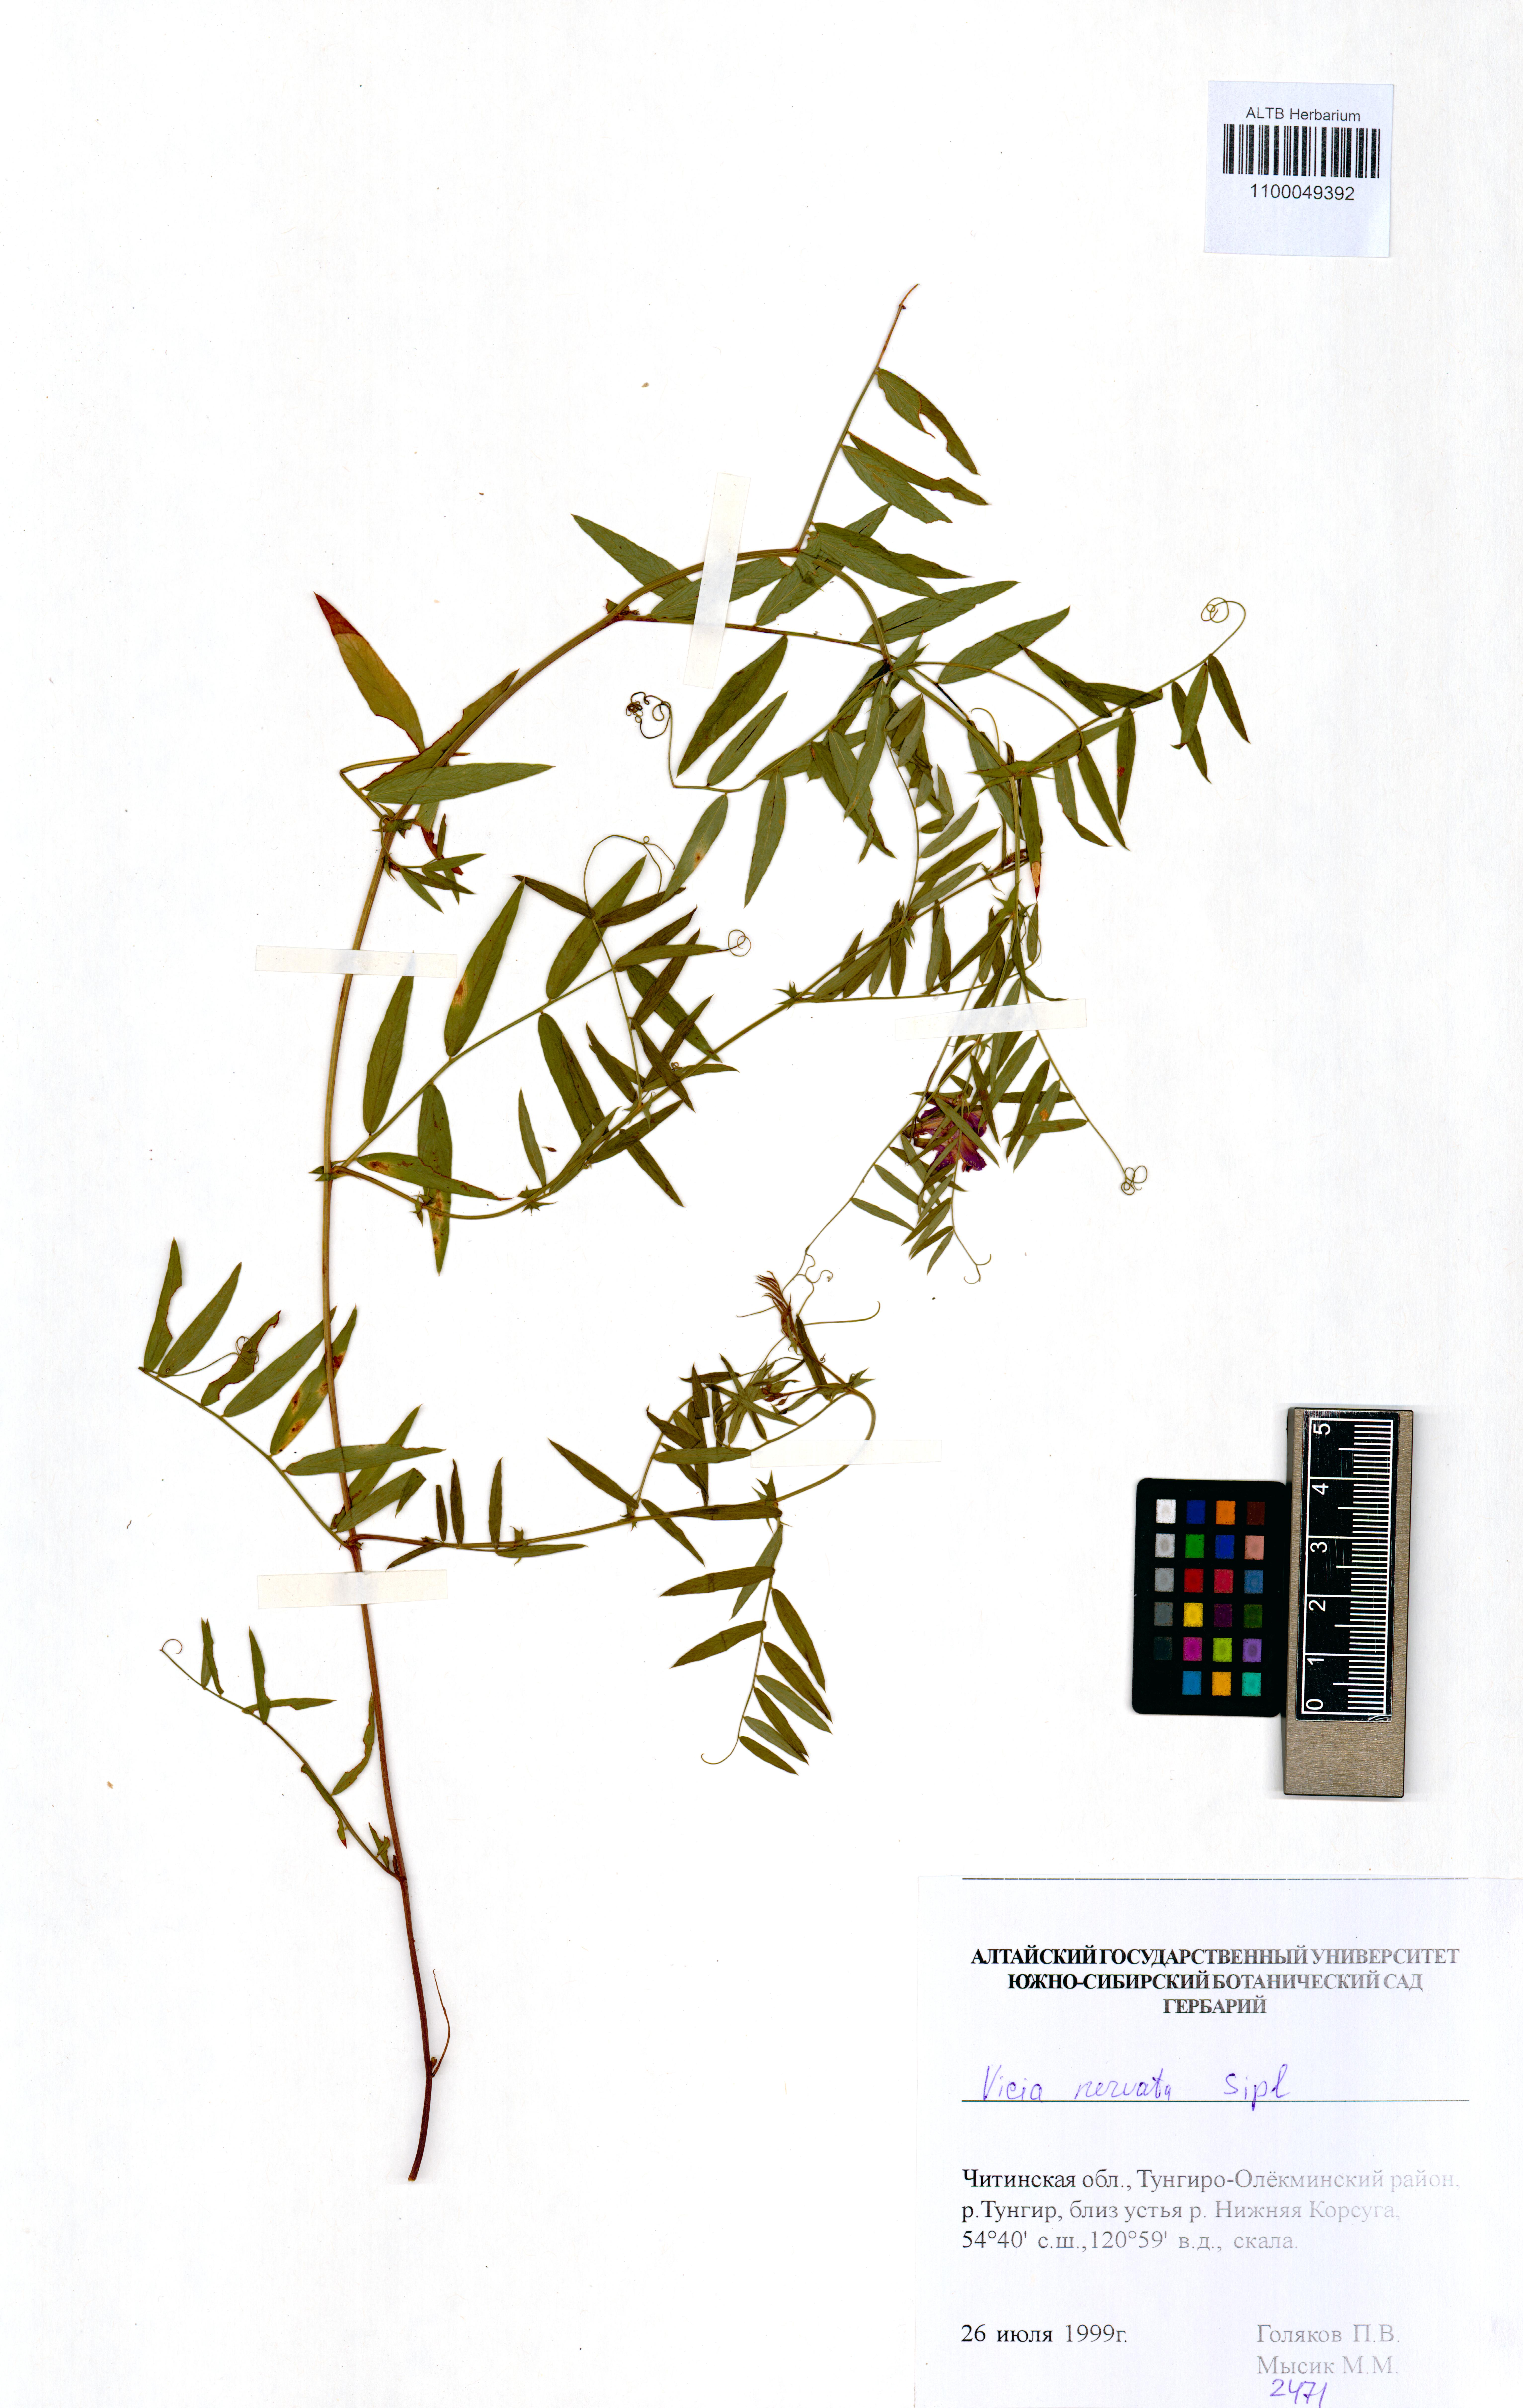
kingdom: Plantae
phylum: Tracheophyta
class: Magnoliopsida
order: Fabales
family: Fabaceae
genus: Vicia
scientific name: Vicia multicaulis
